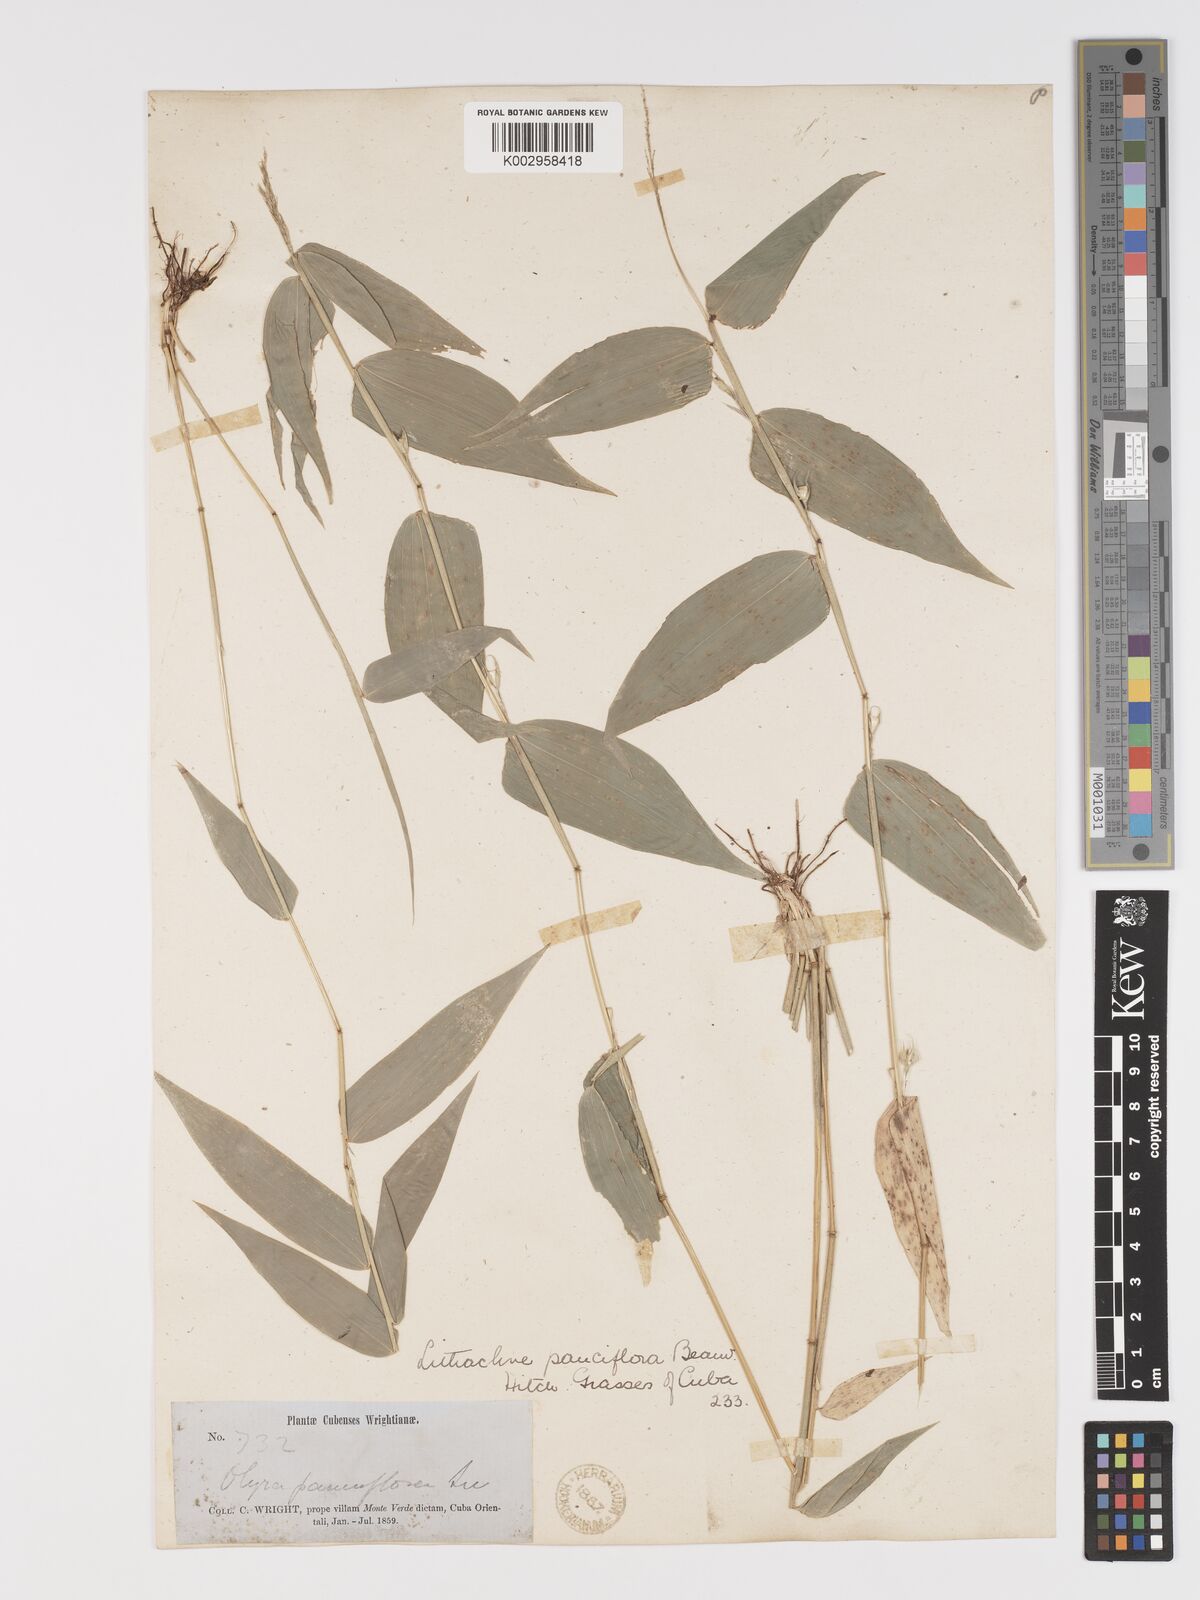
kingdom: Plantae
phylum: Tracheophyta
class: Liliopsida
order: Poales
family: Poaceae
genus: Lithachne
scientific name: Lithachne pauciflora
